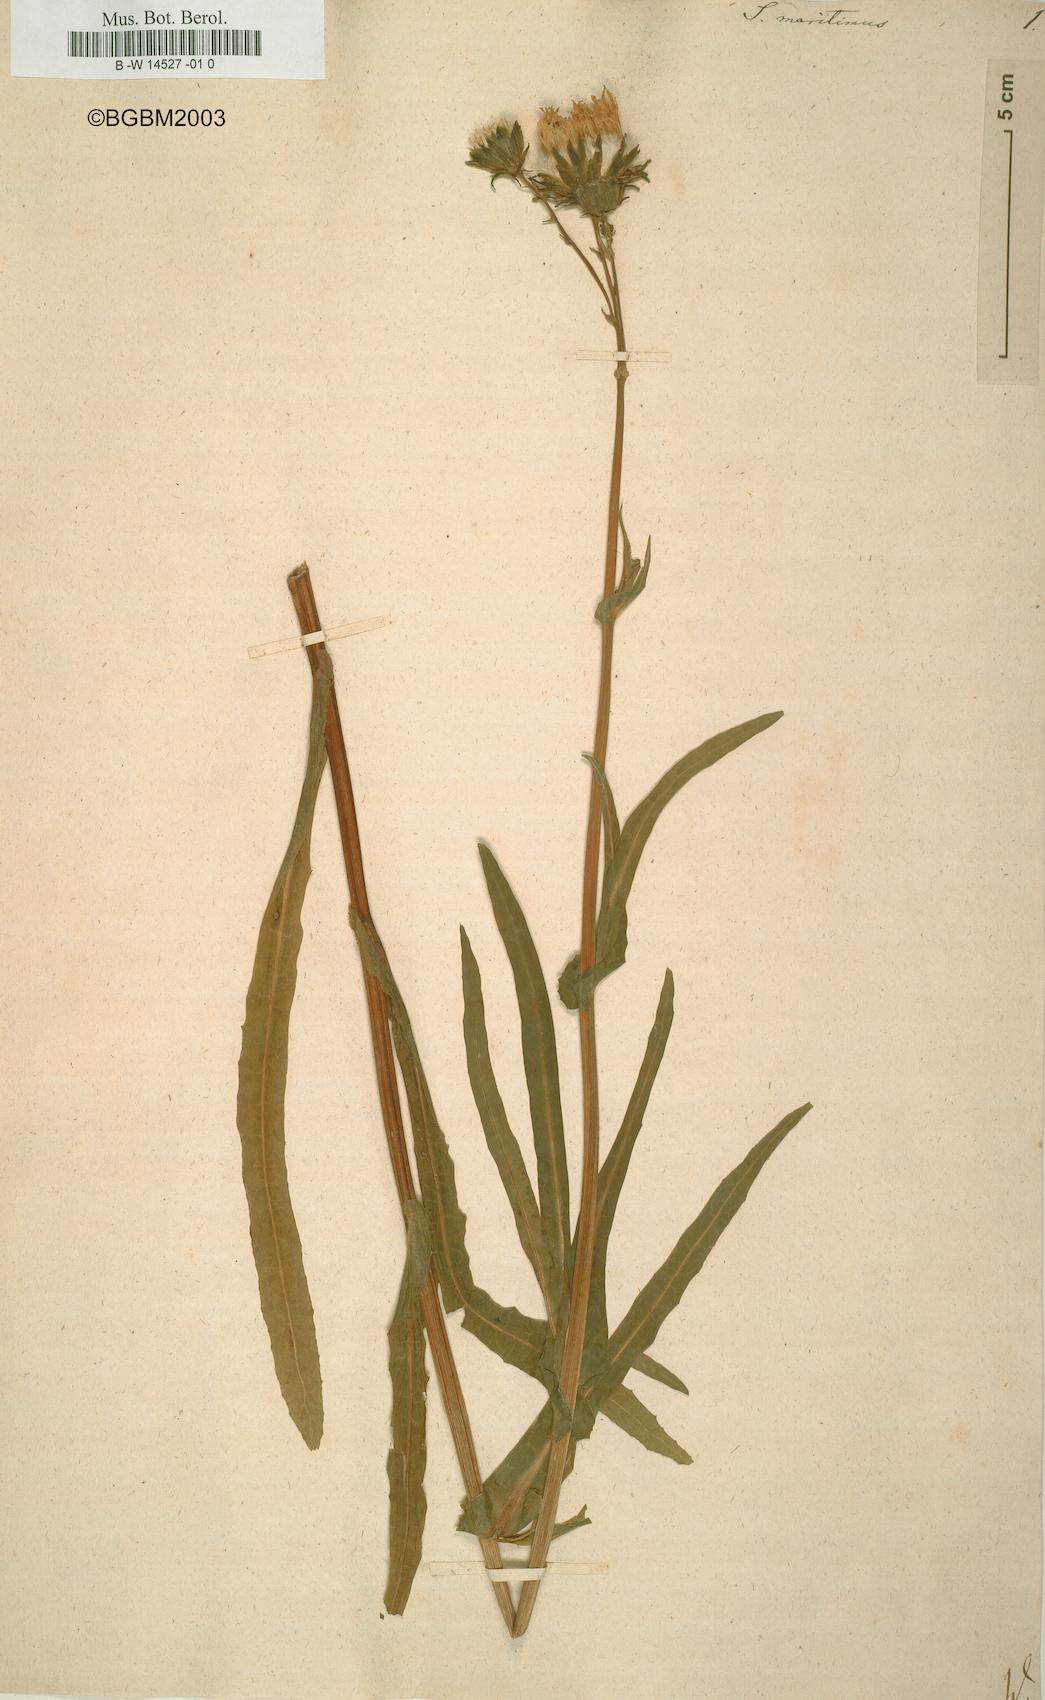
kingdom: Plantae
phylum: Tracheophyta
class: Magnoliopsida
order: Asterales
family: Asteraceae
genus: Sonchus
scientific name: Sonchus maritimus
